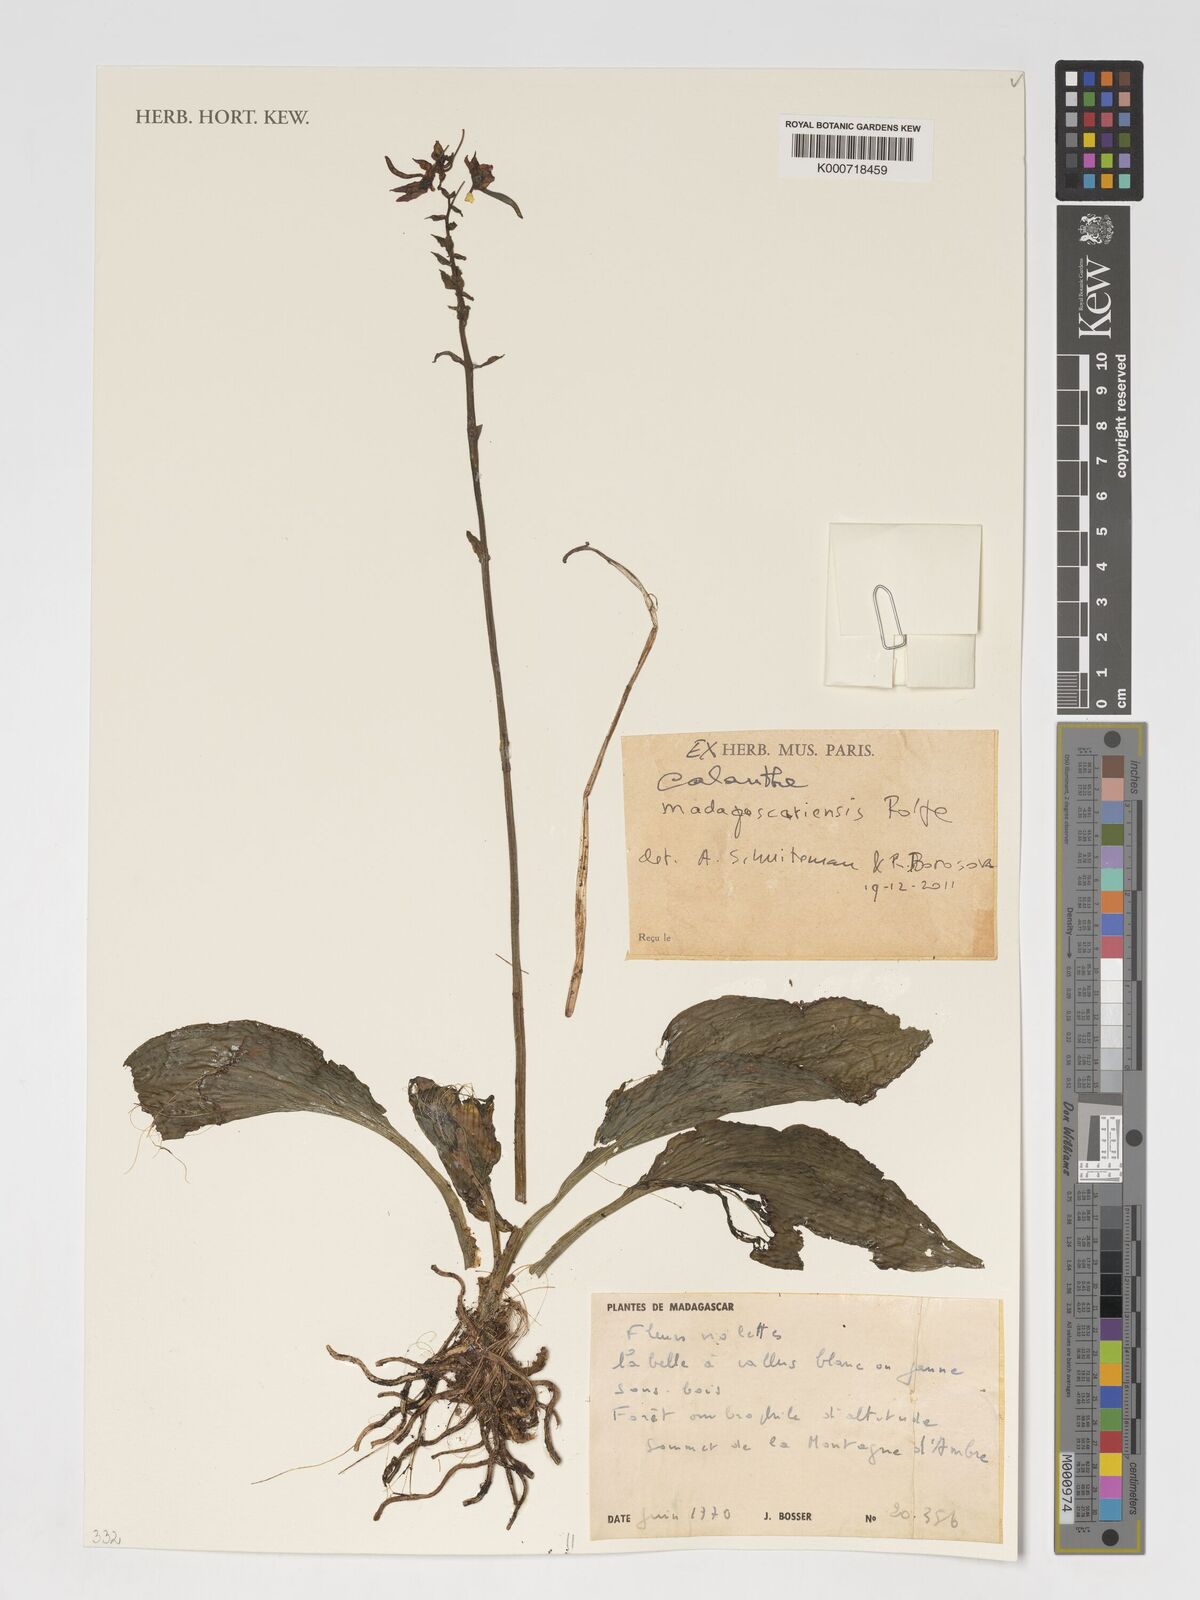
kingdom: Plantae
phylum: Tracheophyta
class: Liliopsida
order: Asparagales
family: Orchidaceae
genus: Calanthe
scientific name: Calanthe madagascariensis
